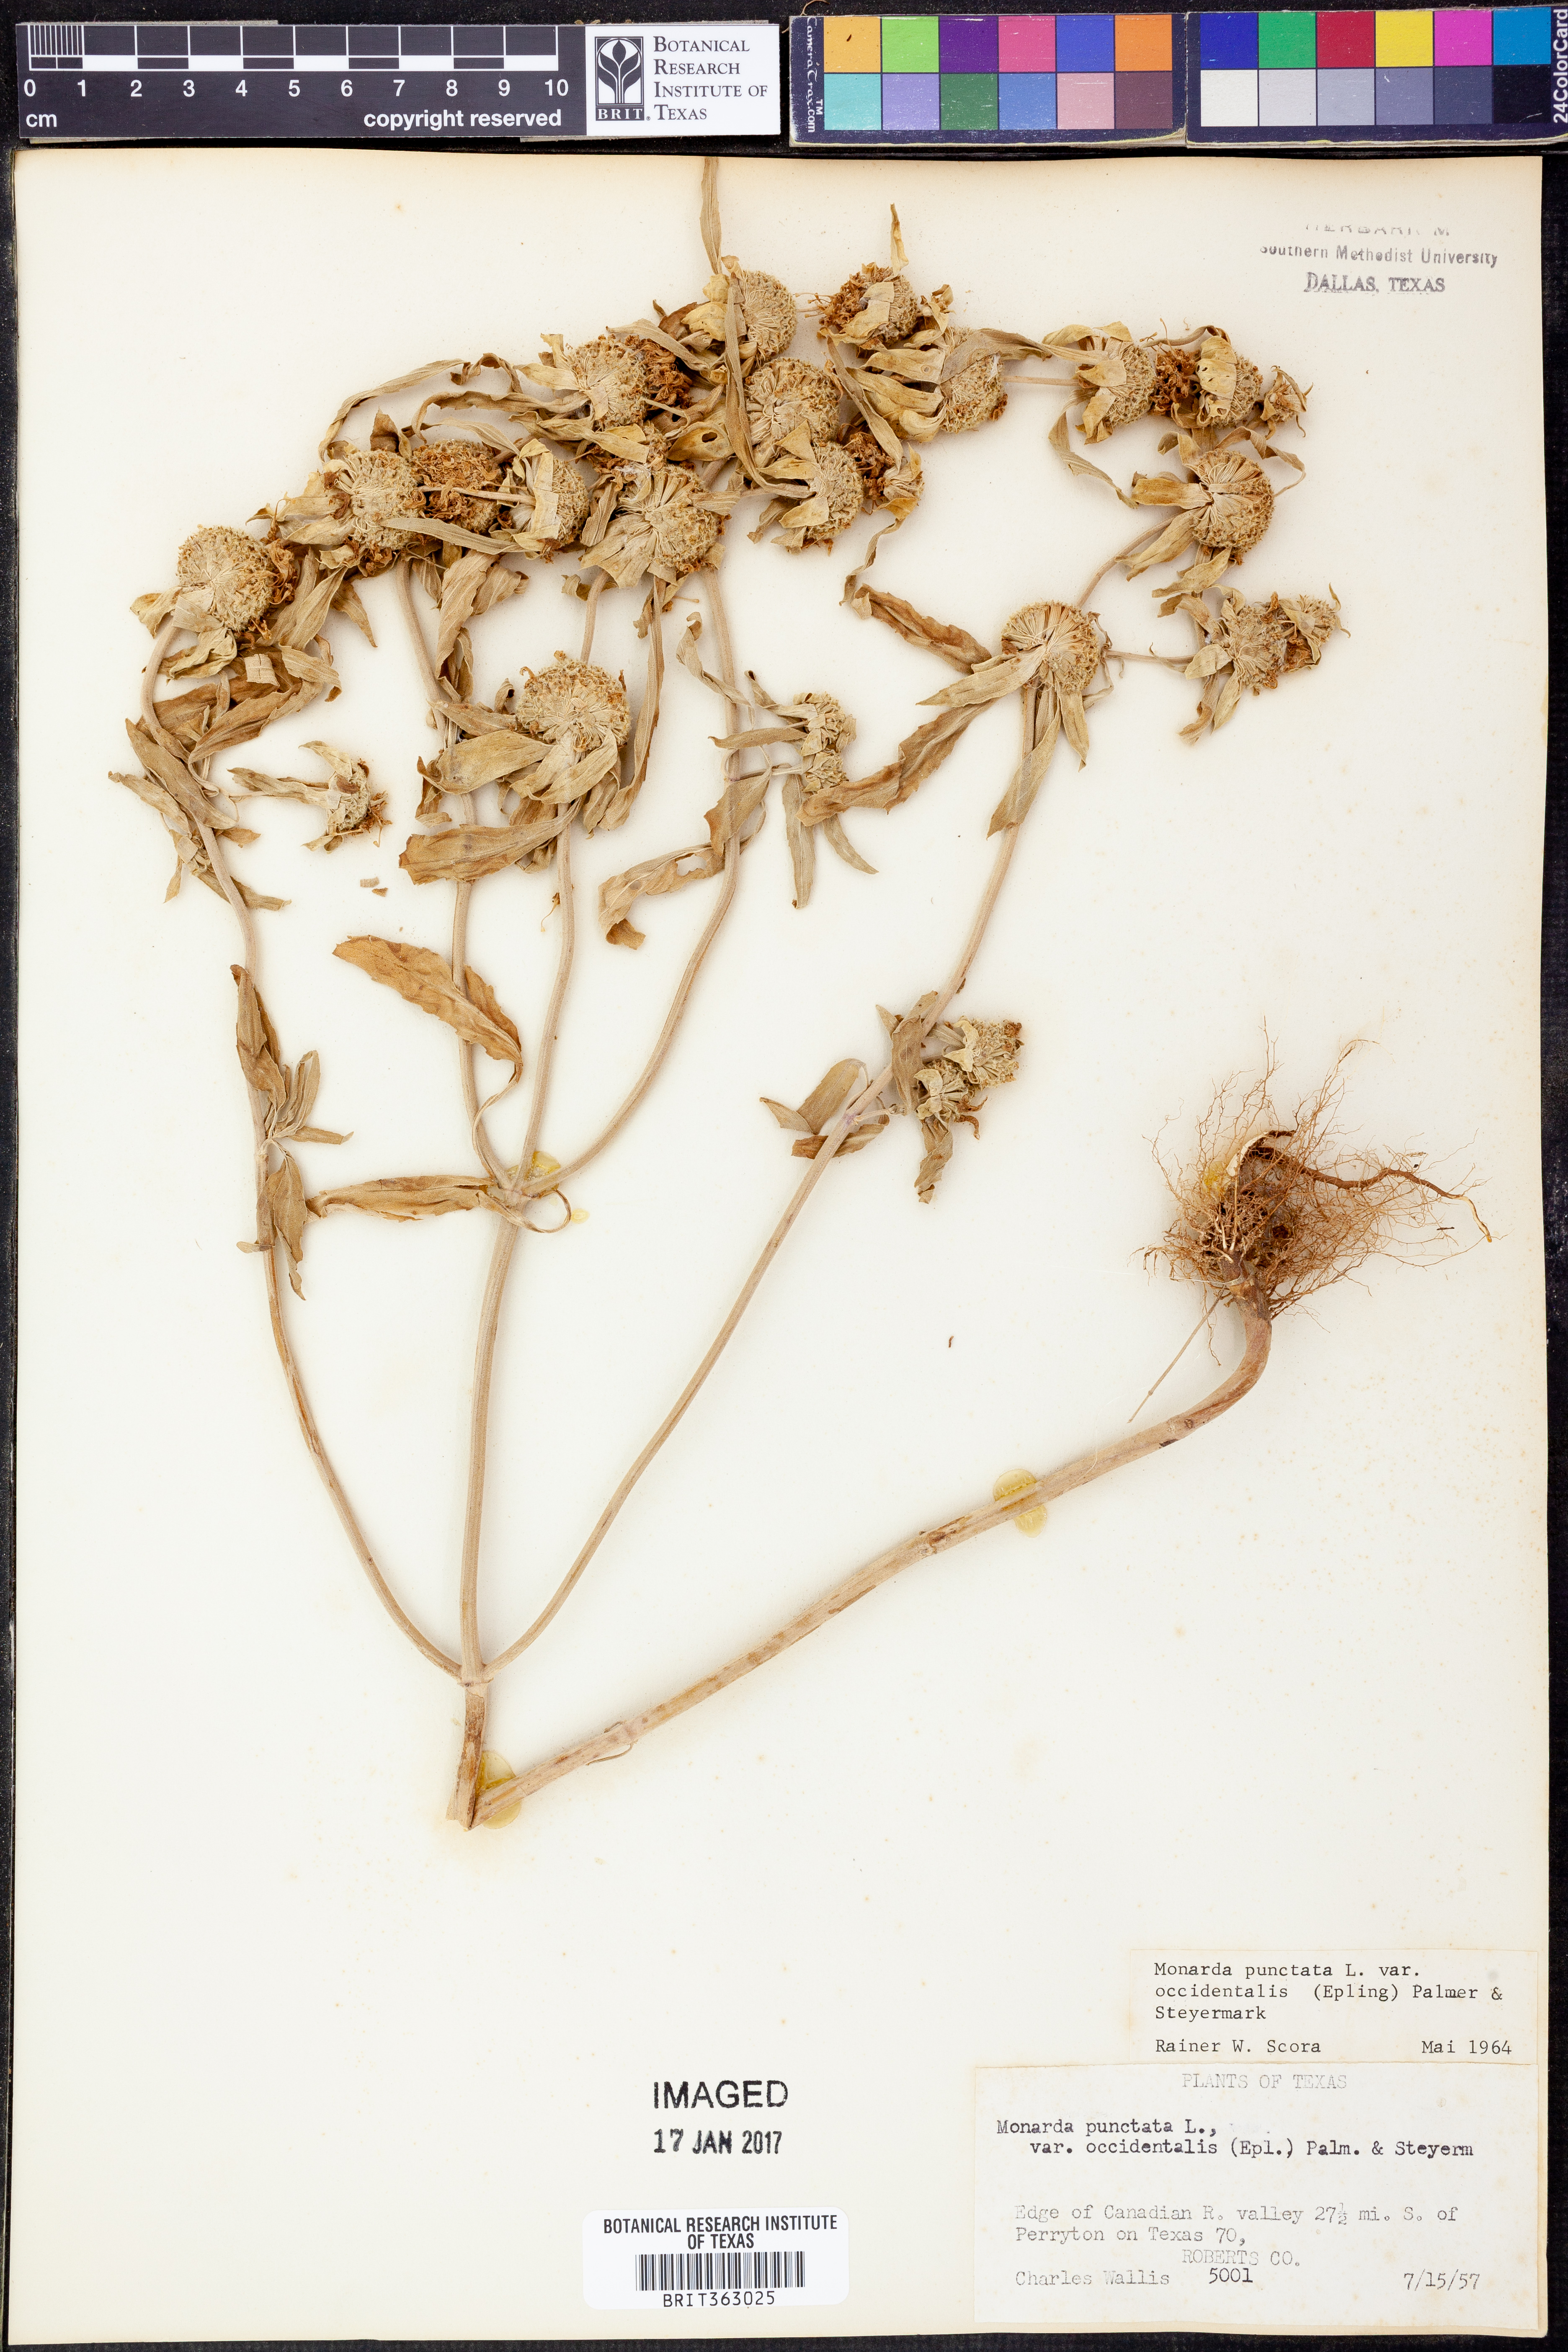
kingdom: Plantae
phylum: Tracheophyta
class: Magnoliopsida
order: Lamiales
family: Lamiaceae
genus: Monarda
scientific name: Monarda punctata
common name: Dotted monarda
